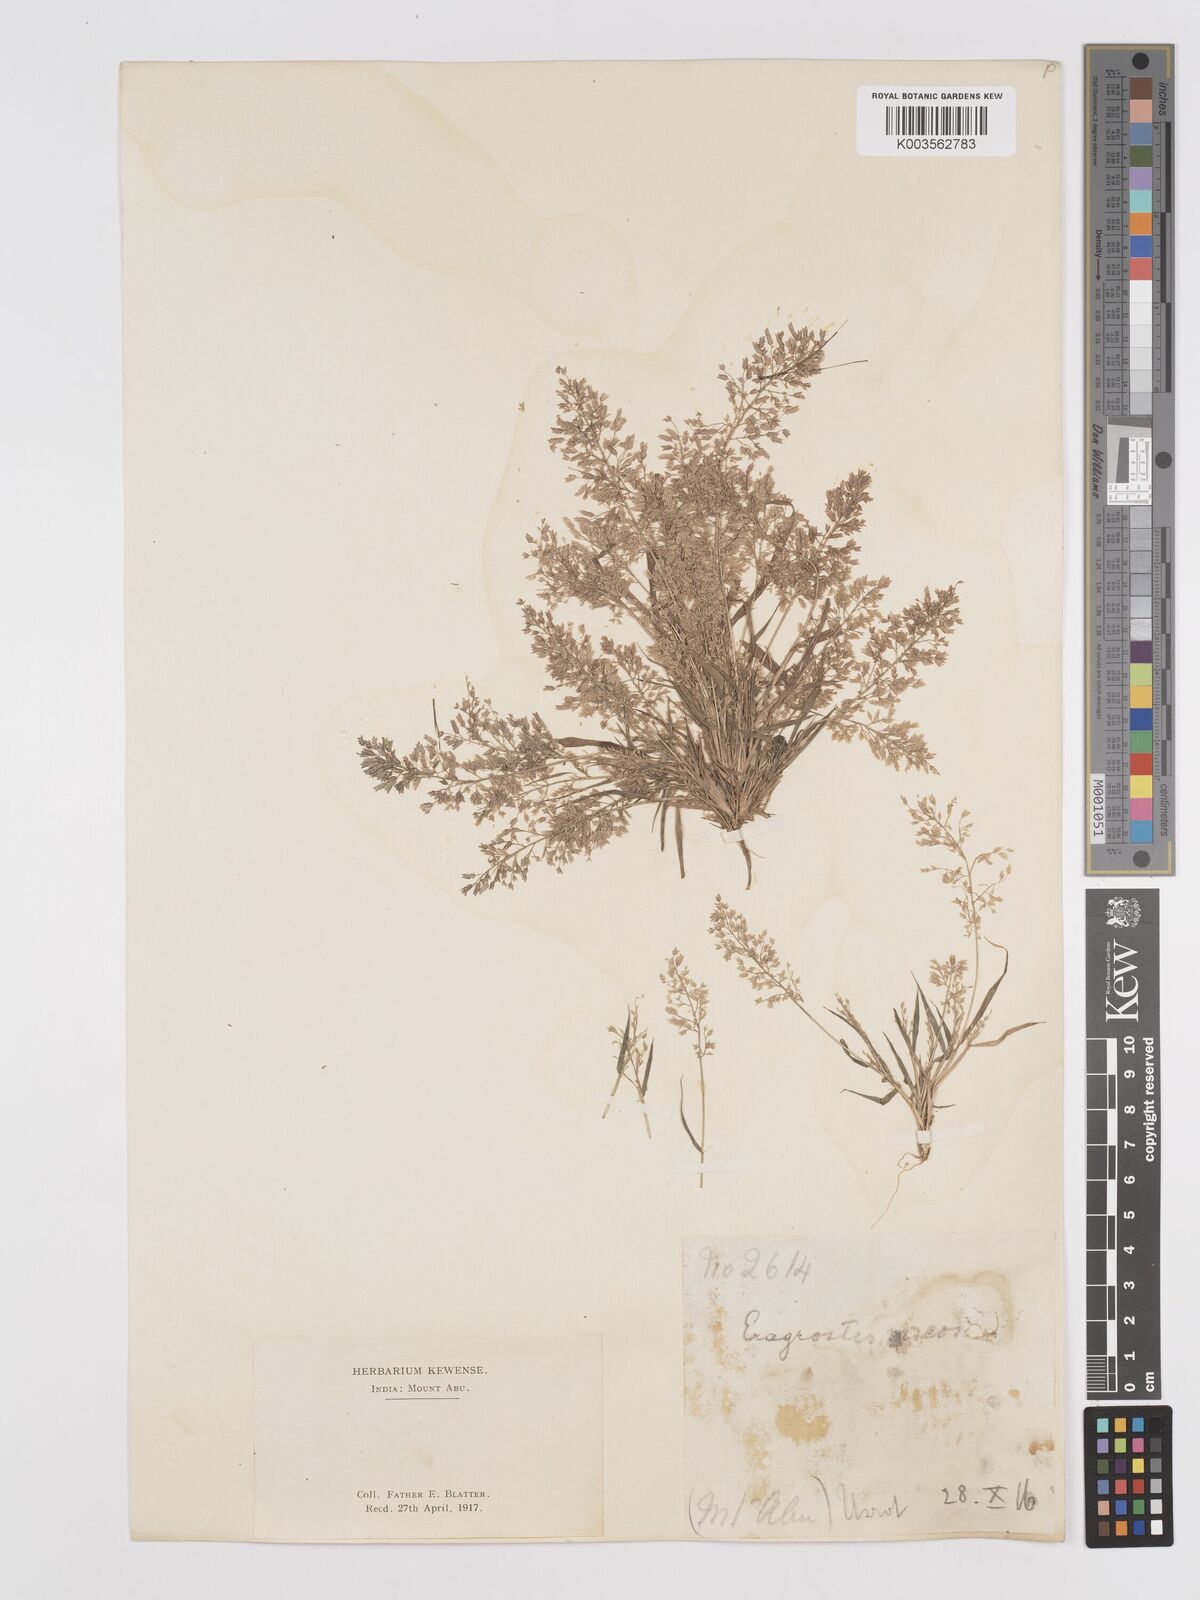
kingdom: Plantae
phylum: Tracheophyta
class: Liliopsida
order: Poales
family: Poaceae
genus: Eragrostis
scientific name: Eragrostis viscosa
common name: Sticky love grass
